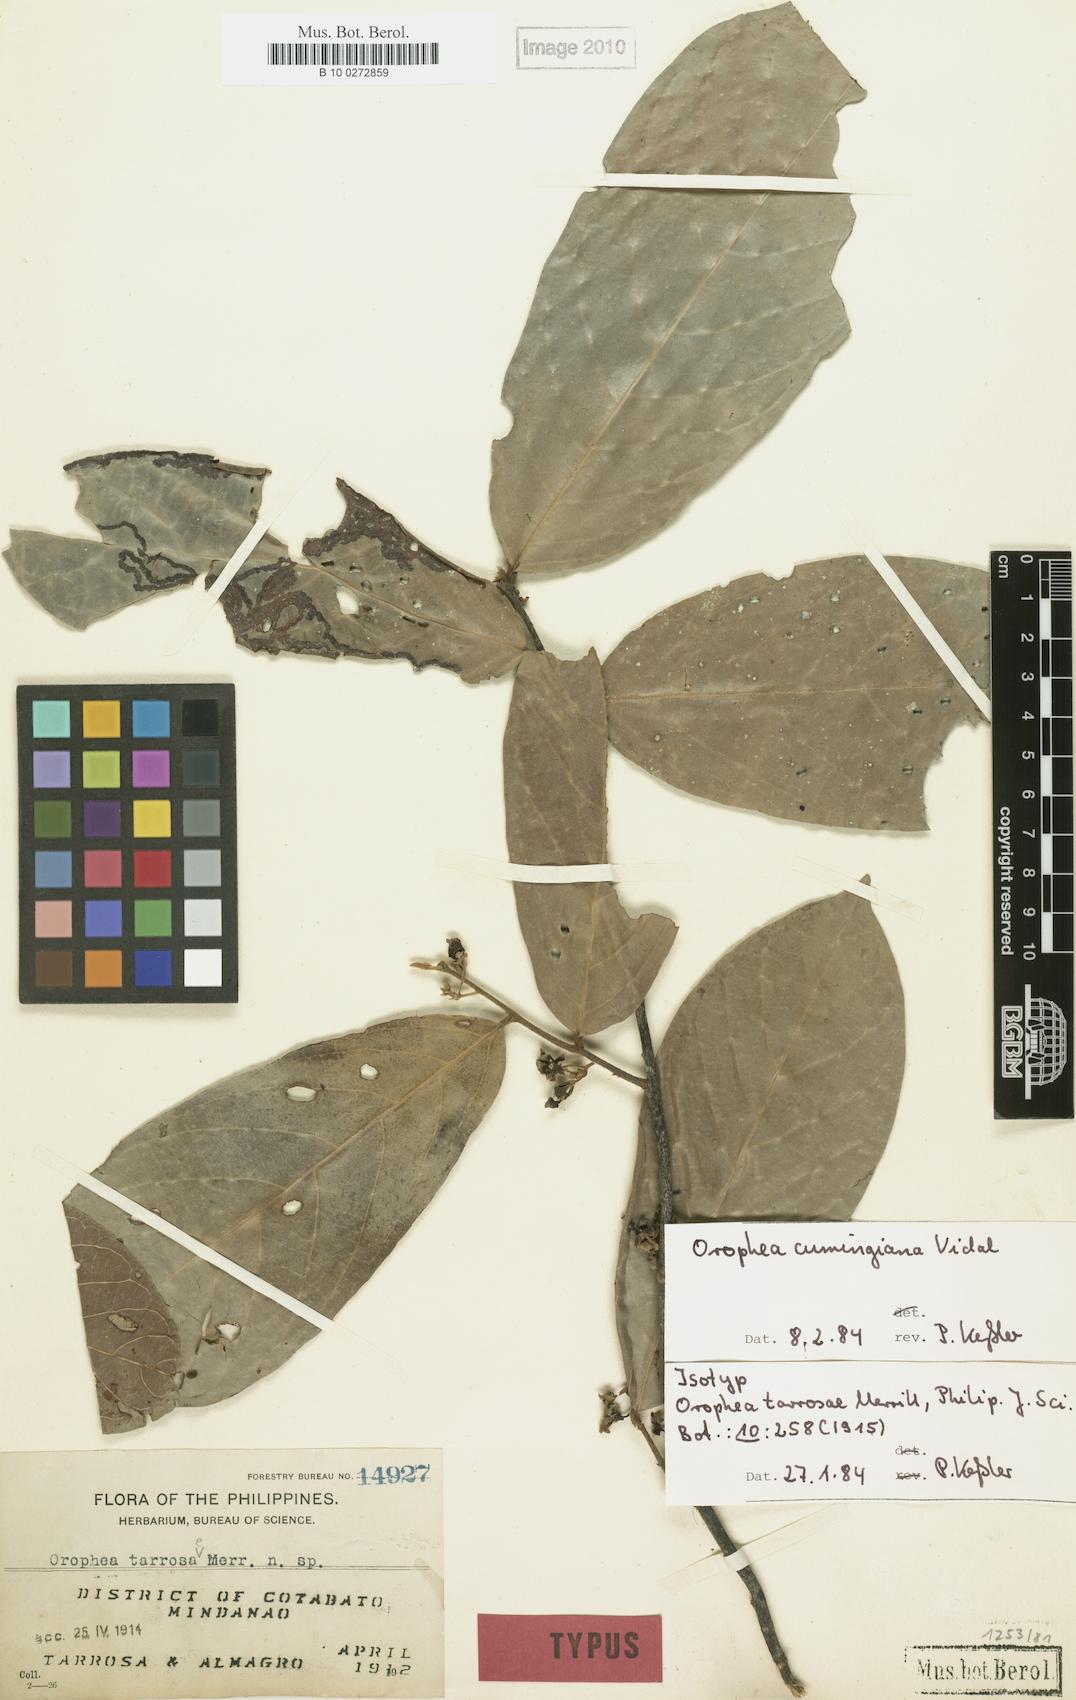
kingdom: Plantae
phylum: Tracheophyta
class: Magnoliopsida
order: Magnoliales
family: Annonaceae
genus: Orophea
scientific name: Orophea cumingiana
